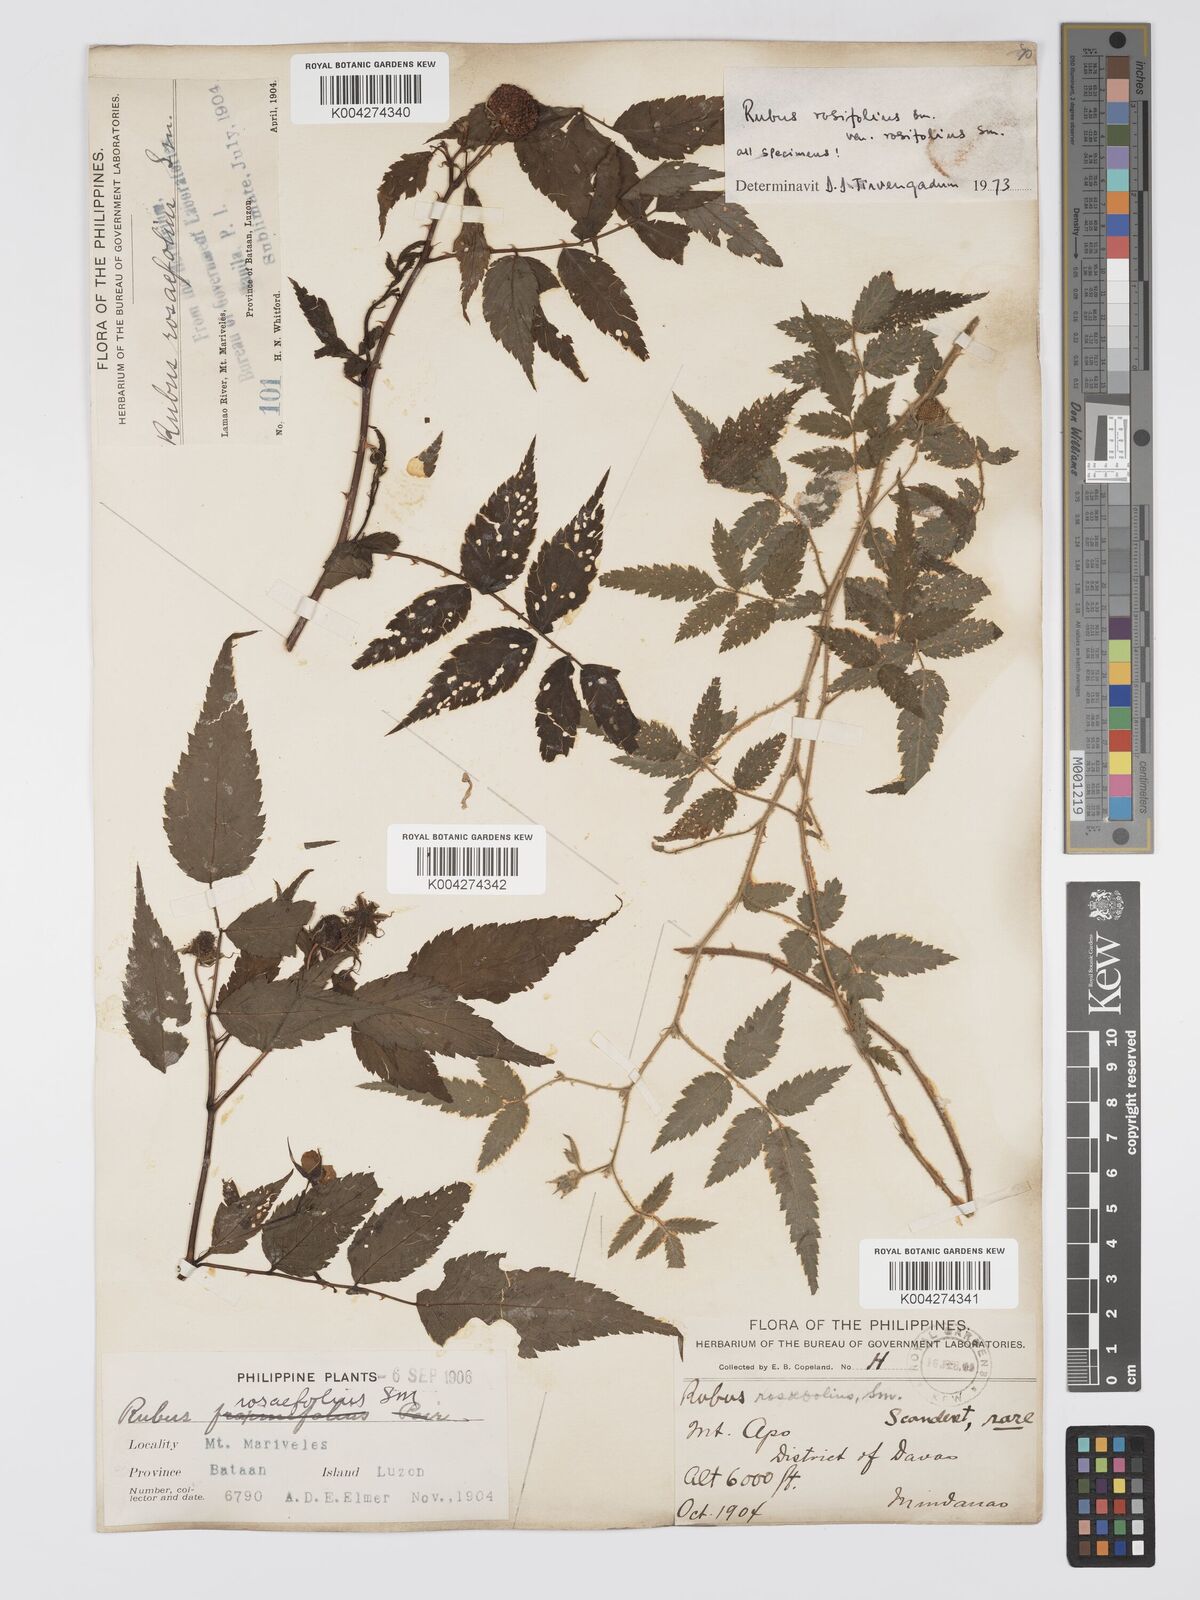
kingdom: Plantae
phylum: Tracheophyta
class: Magnoliopsida
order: Rosales
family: Rosaceae
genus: Rubus
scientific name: Rubus
